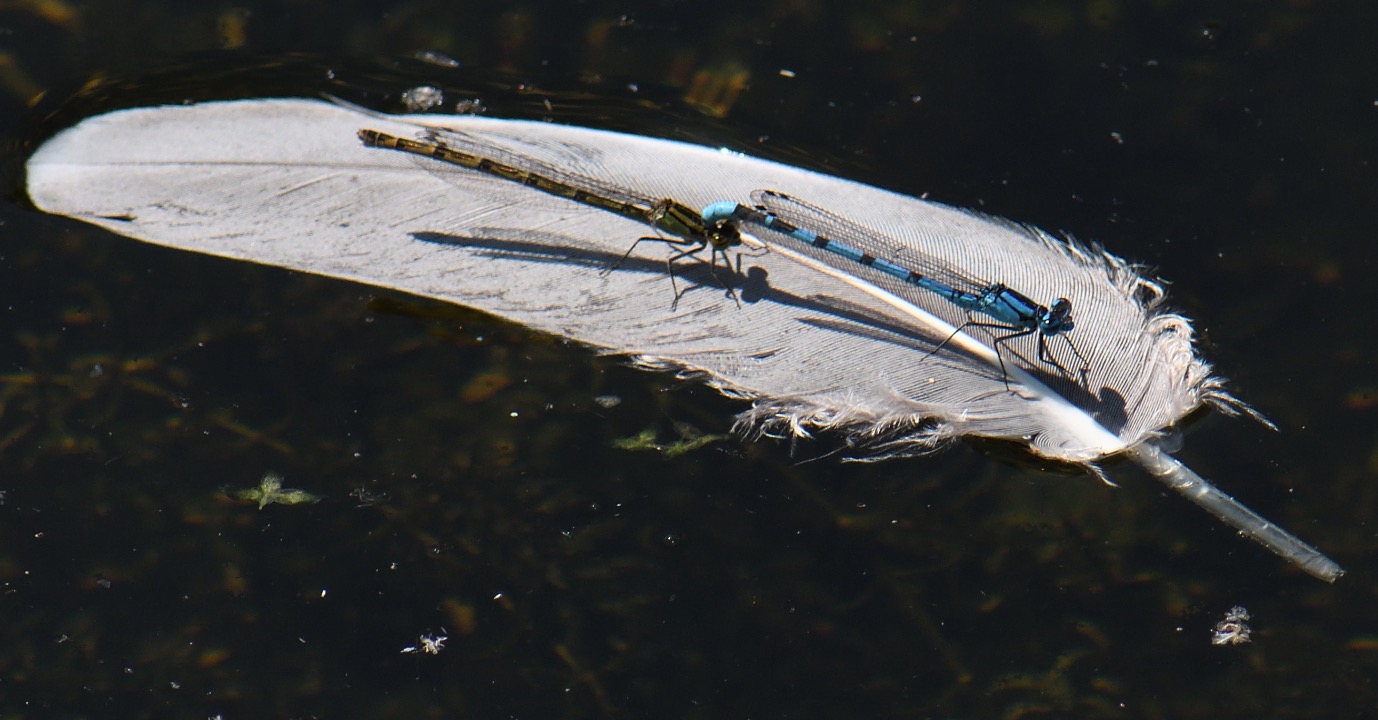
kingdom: Animalia
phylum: Arthropoda
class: Insecta
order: Odonata
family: Coenagrionidae
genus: Enallagma
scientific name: Enallagma cyathigerum
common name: Almindelig vandnymfe
